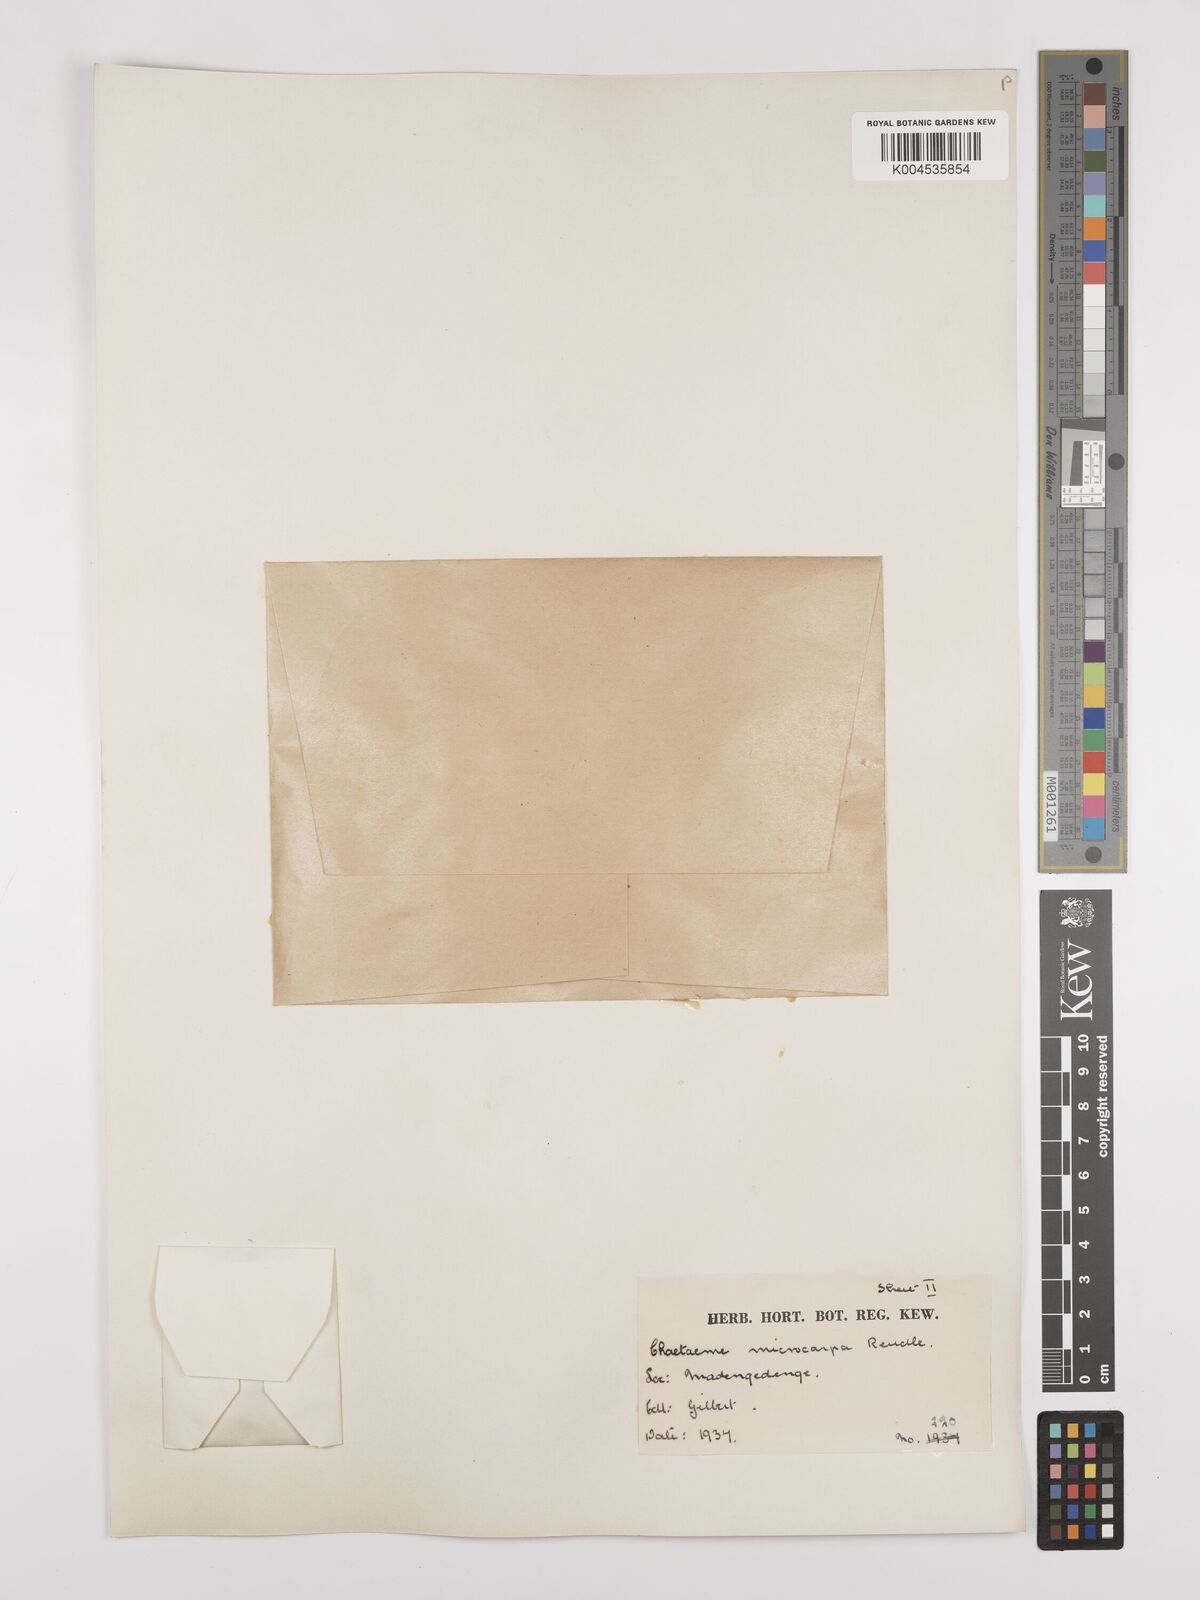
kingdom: Plantae
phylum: Tracheophyta
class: Magnoliopsida
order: Rosales
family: Cannabaceae
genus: Chaetachme
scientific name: Chaetachme aristata
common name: Thorny elm
